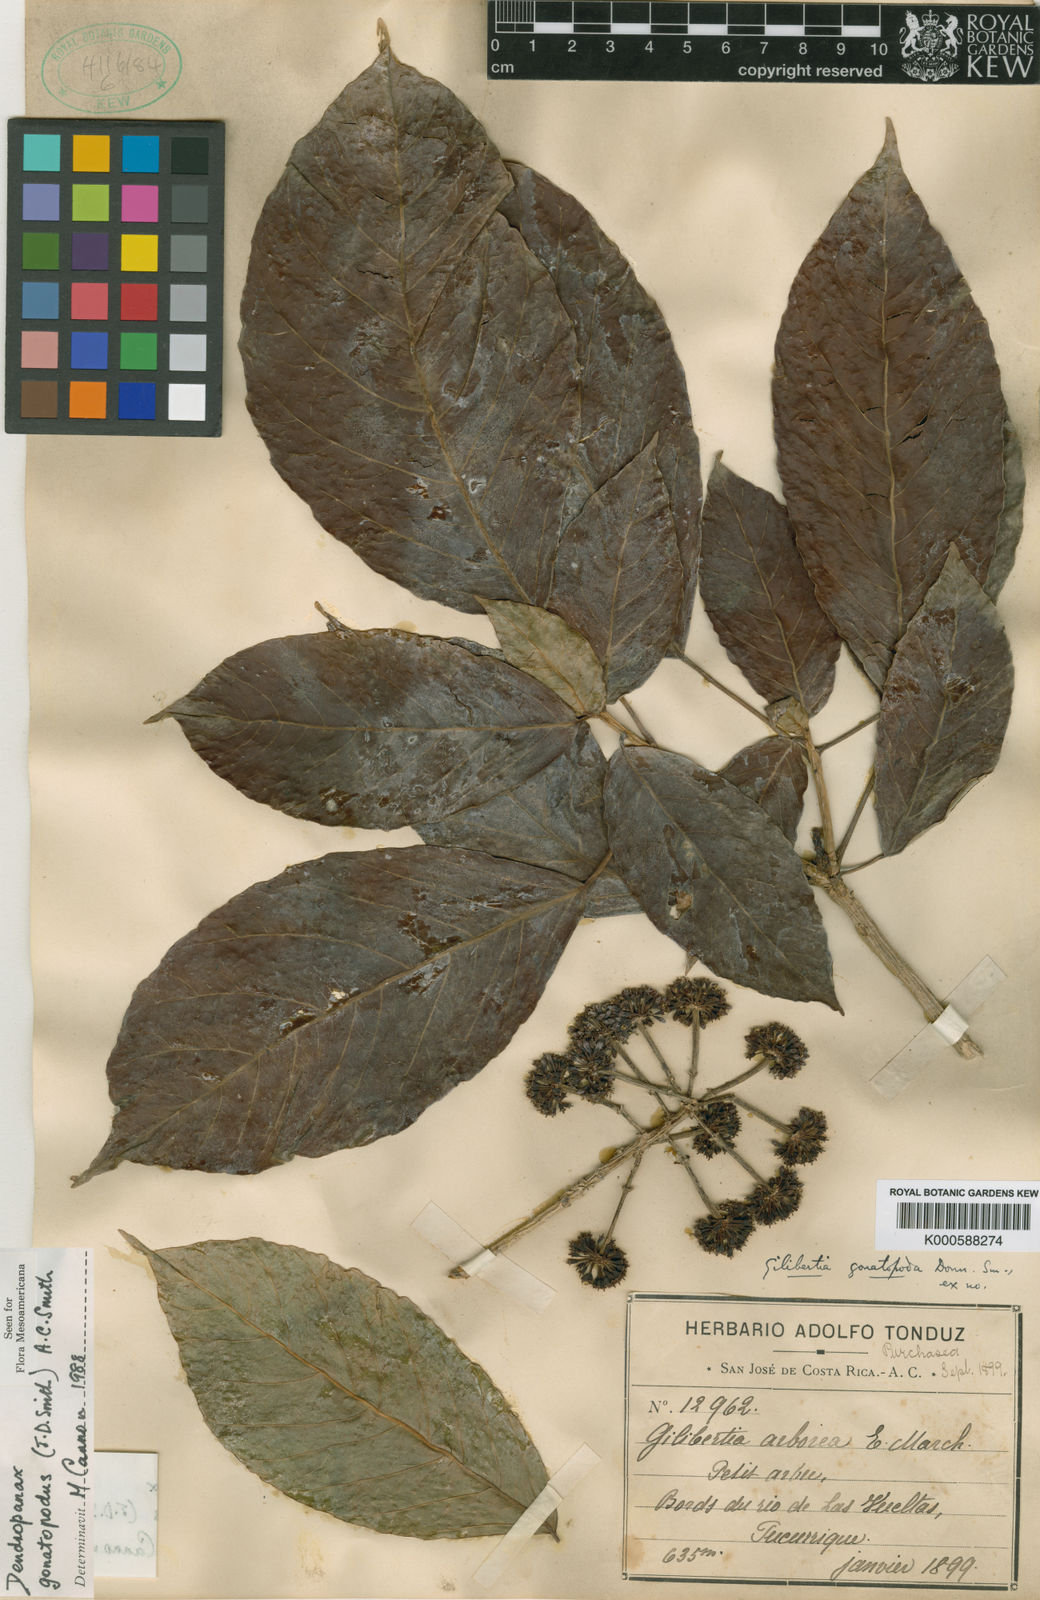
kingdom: Plantae
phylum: Tracheophyta
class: Magnoliopsida
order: Apiales
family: Araliaceae
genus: Dendropanax
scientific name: Dendropanax gonatopodus
